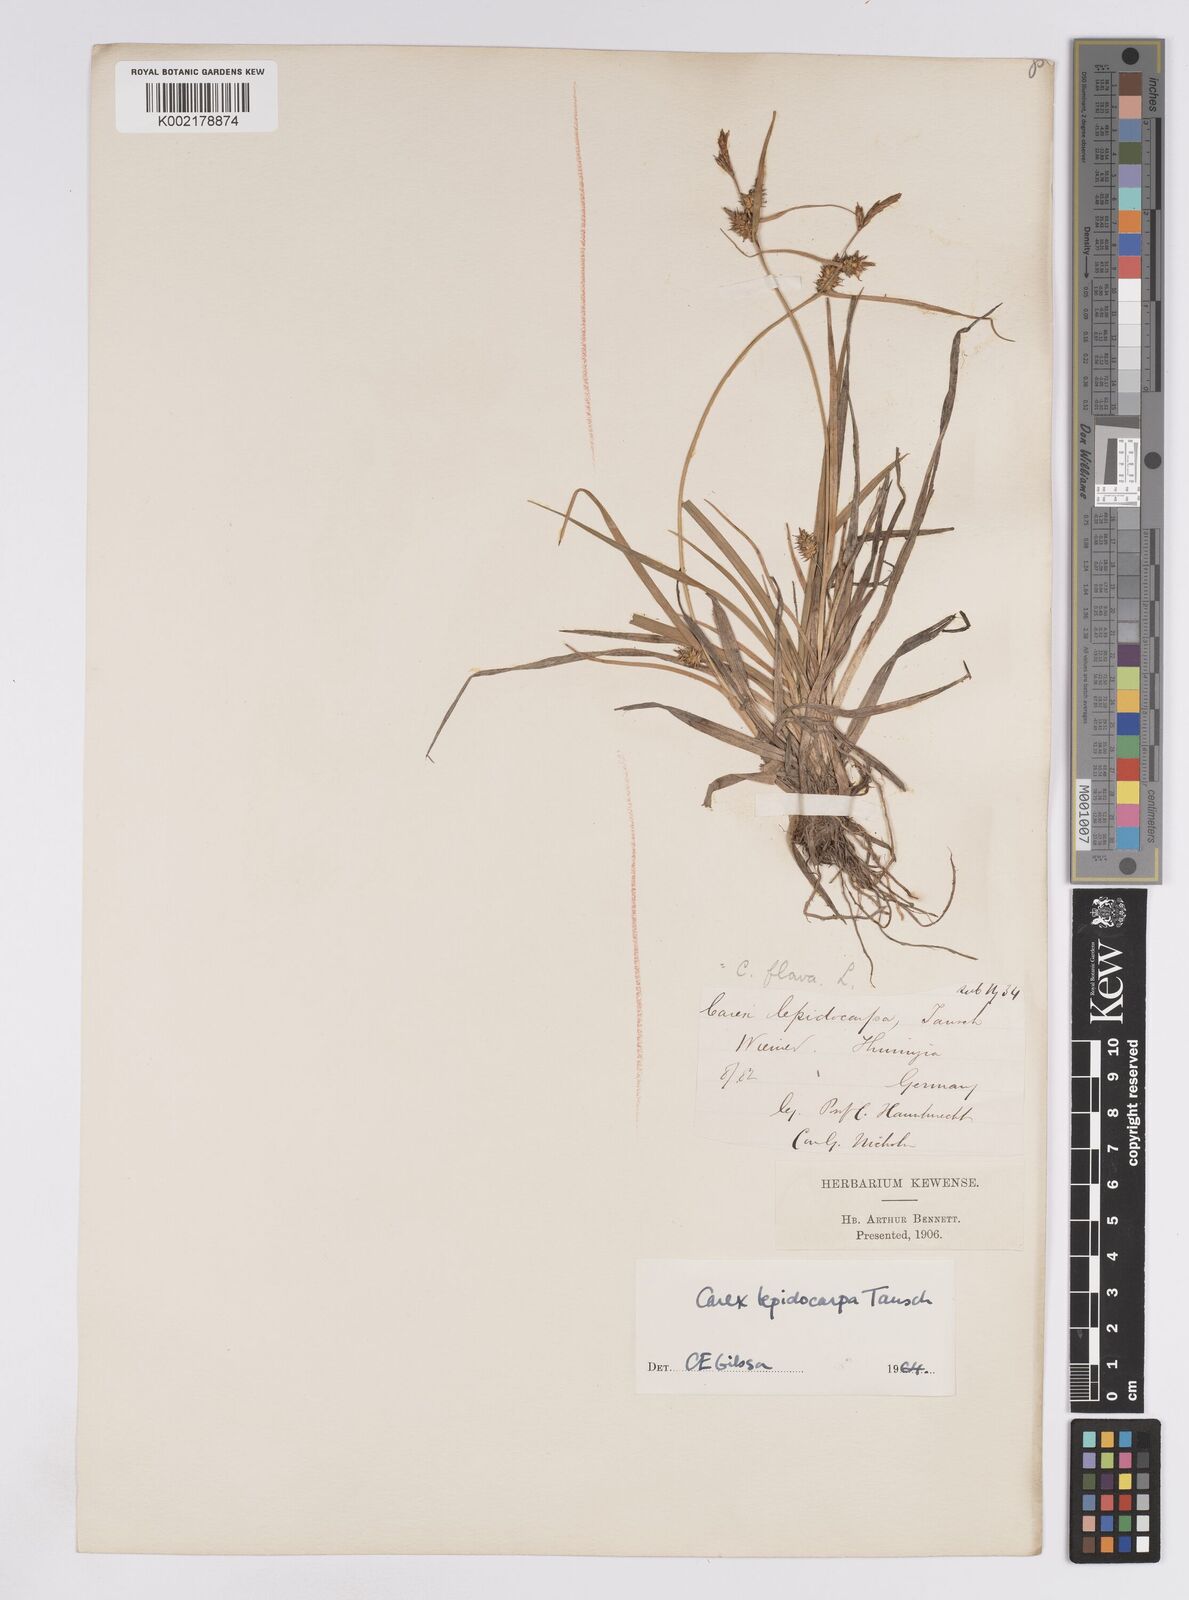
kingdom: Plantae
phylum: Tracheophyta
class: Liliopsida
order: Poales
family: Cyperaceae
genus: Carex
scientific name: Carex lepidocarpa
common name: Long-stalked yellow-sedge
